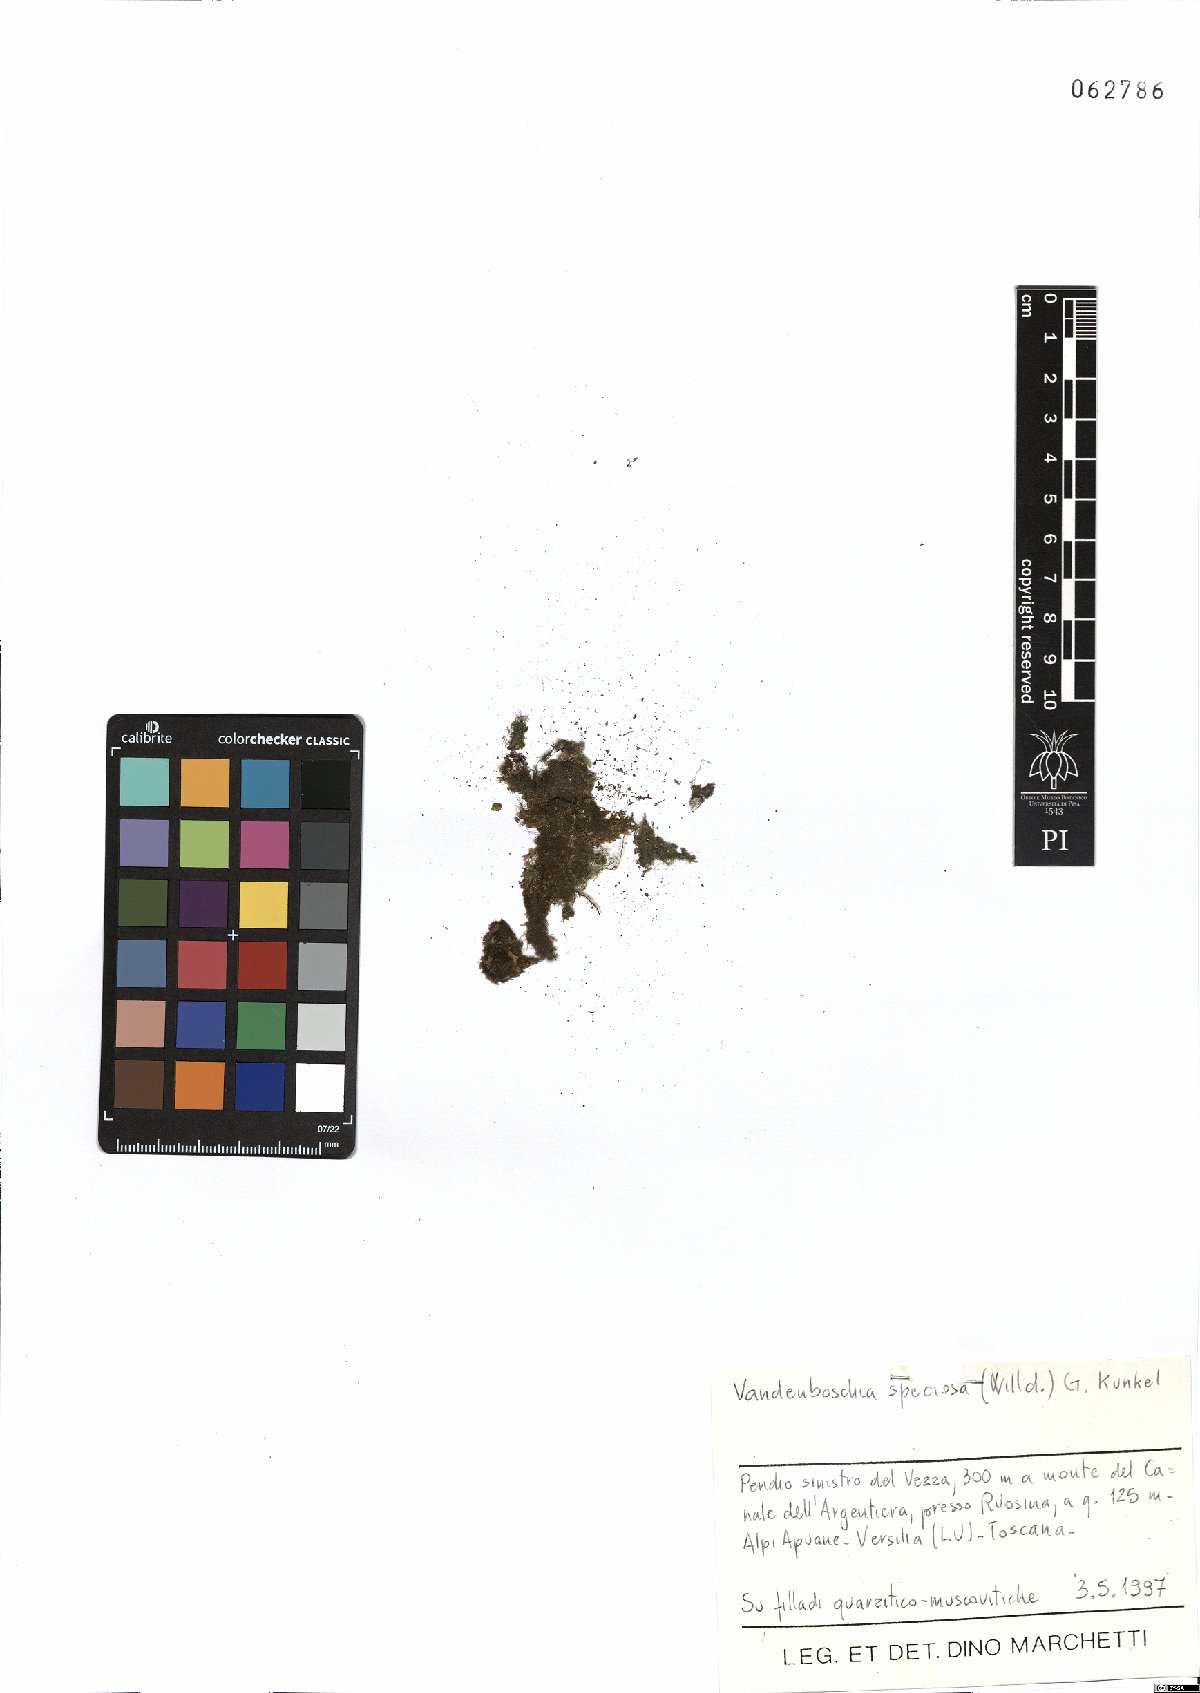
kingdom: Plantae
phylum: Tracheophyta
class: Polypodiopsida
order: Hymenophyllales
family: Hymenophyllaceae
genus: Vandenboschia
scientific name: Vandenboschia speciosa
